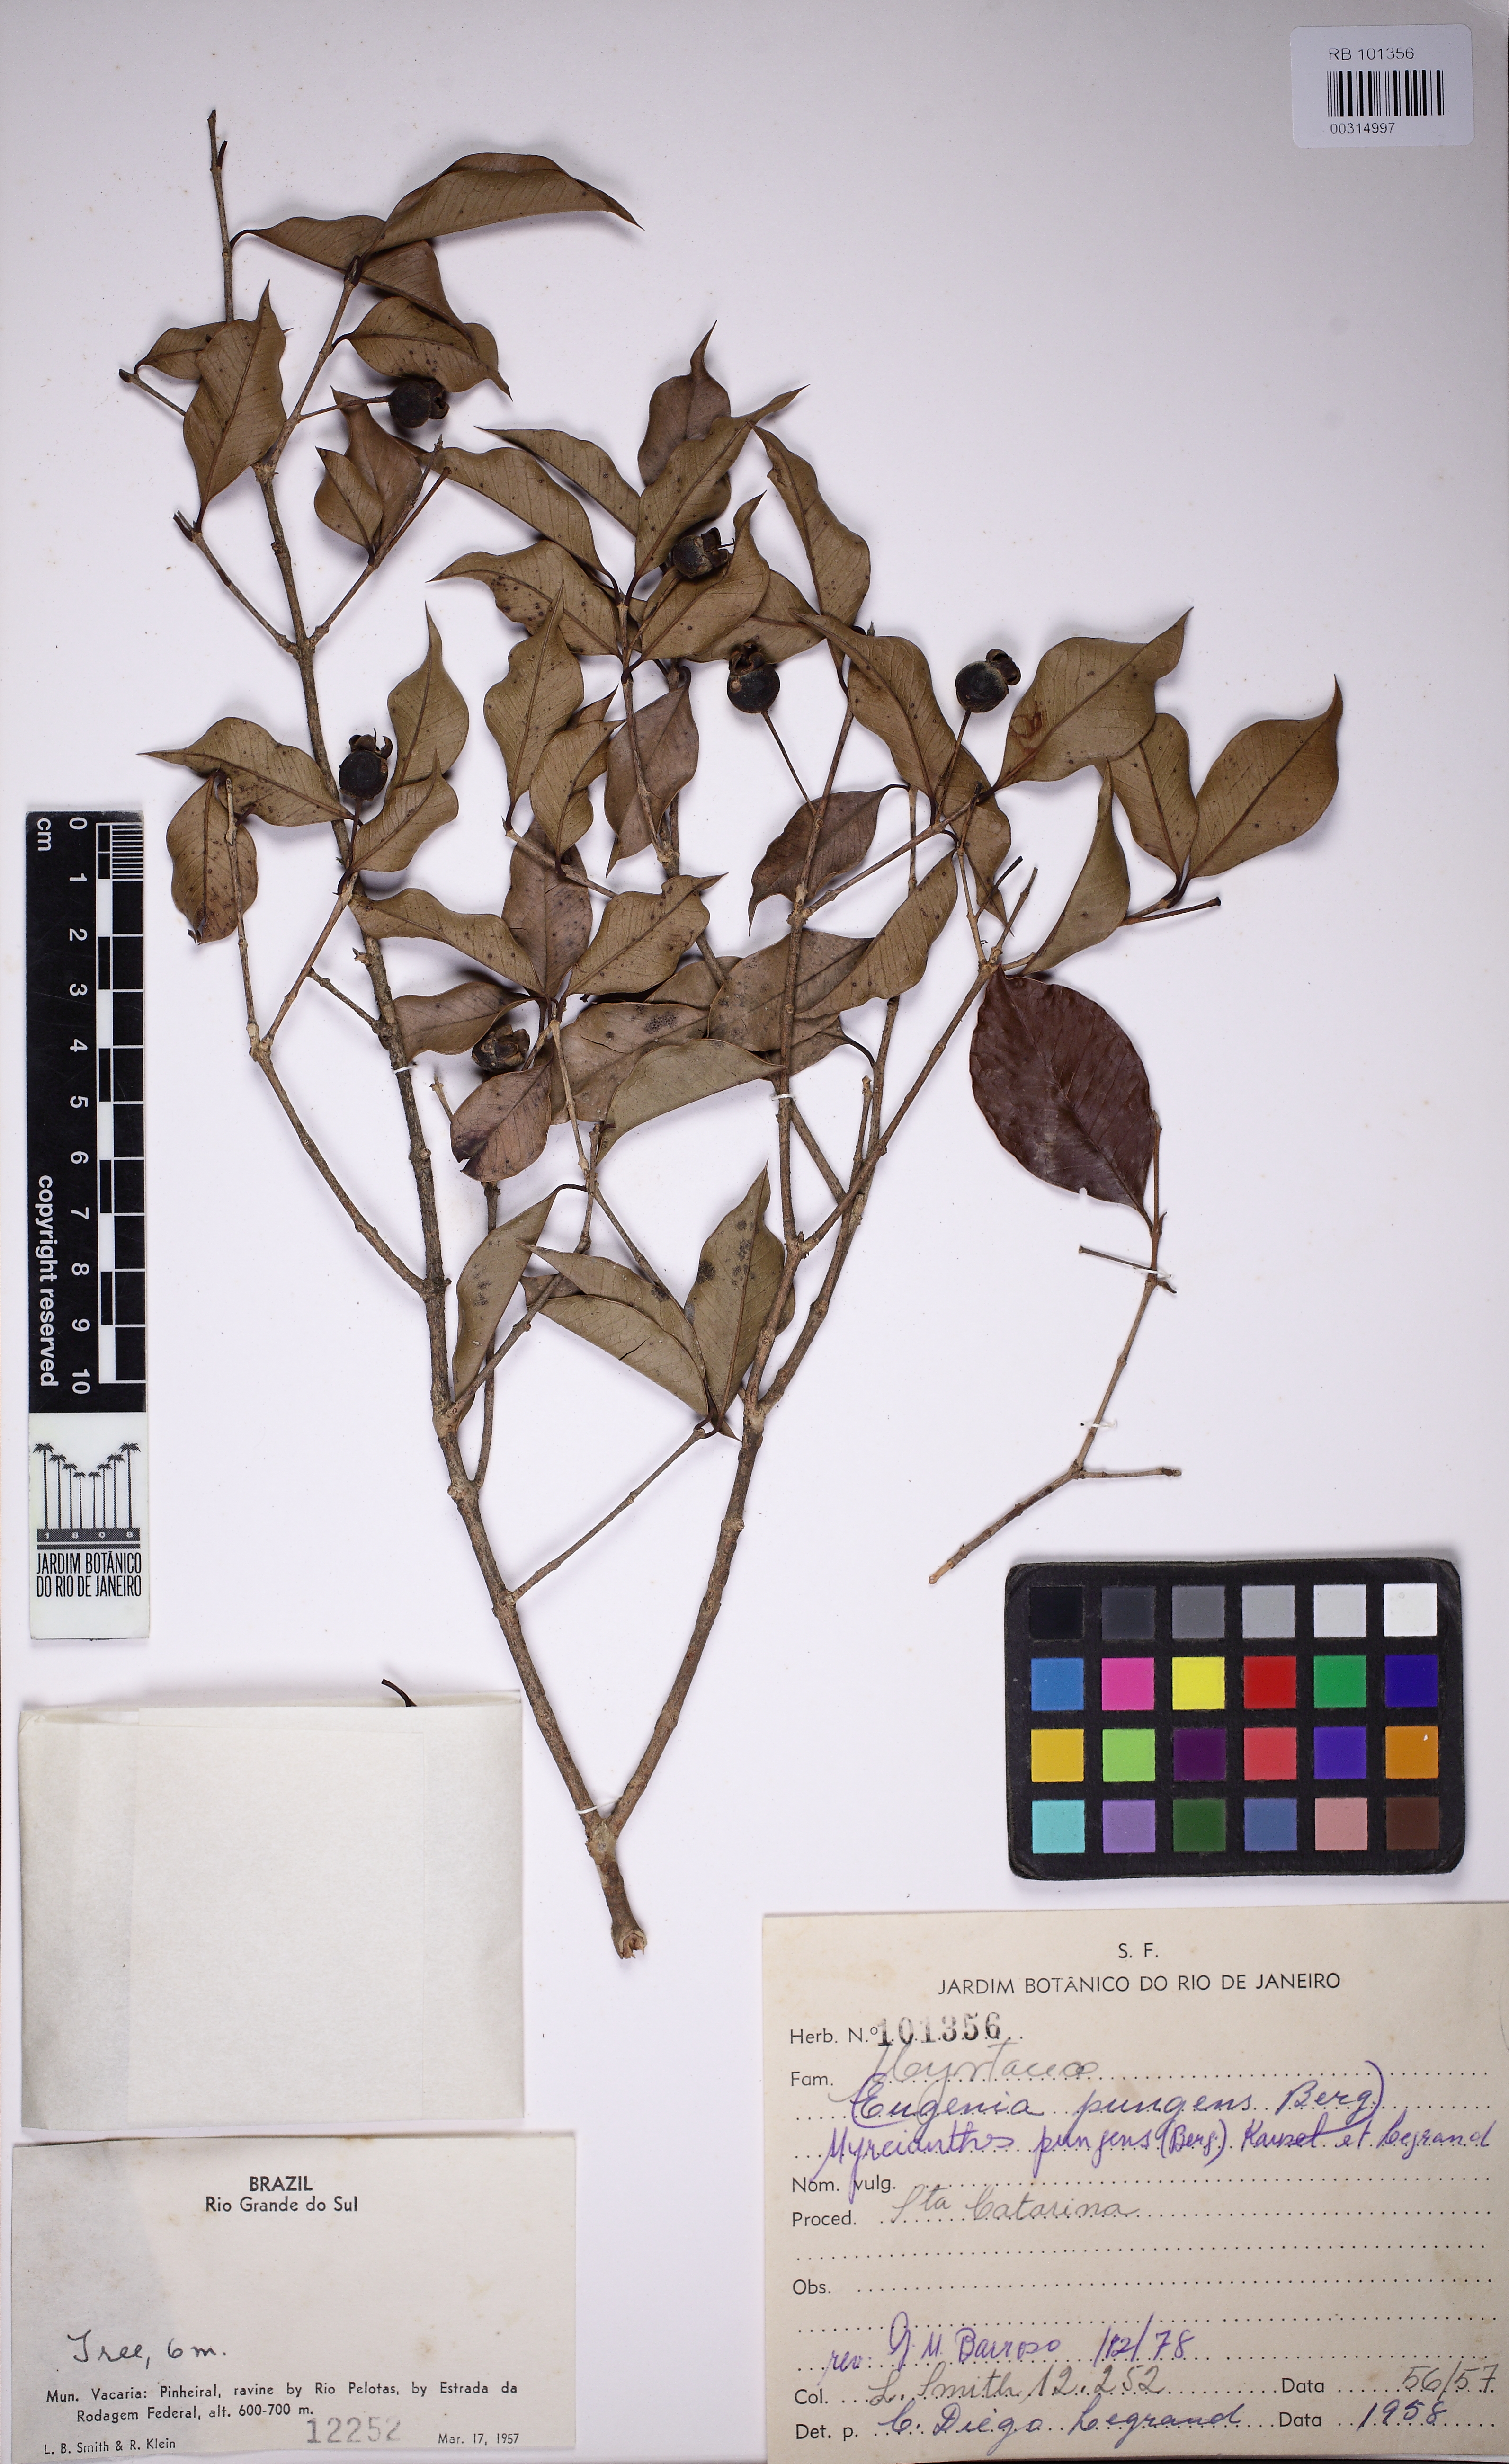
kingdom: Plantae
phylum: Tracheophyta
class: Magnoliopsida
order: Myrtales
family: Myrtaceae
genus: Myrcianthes
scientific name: Myrcianthes pungens
